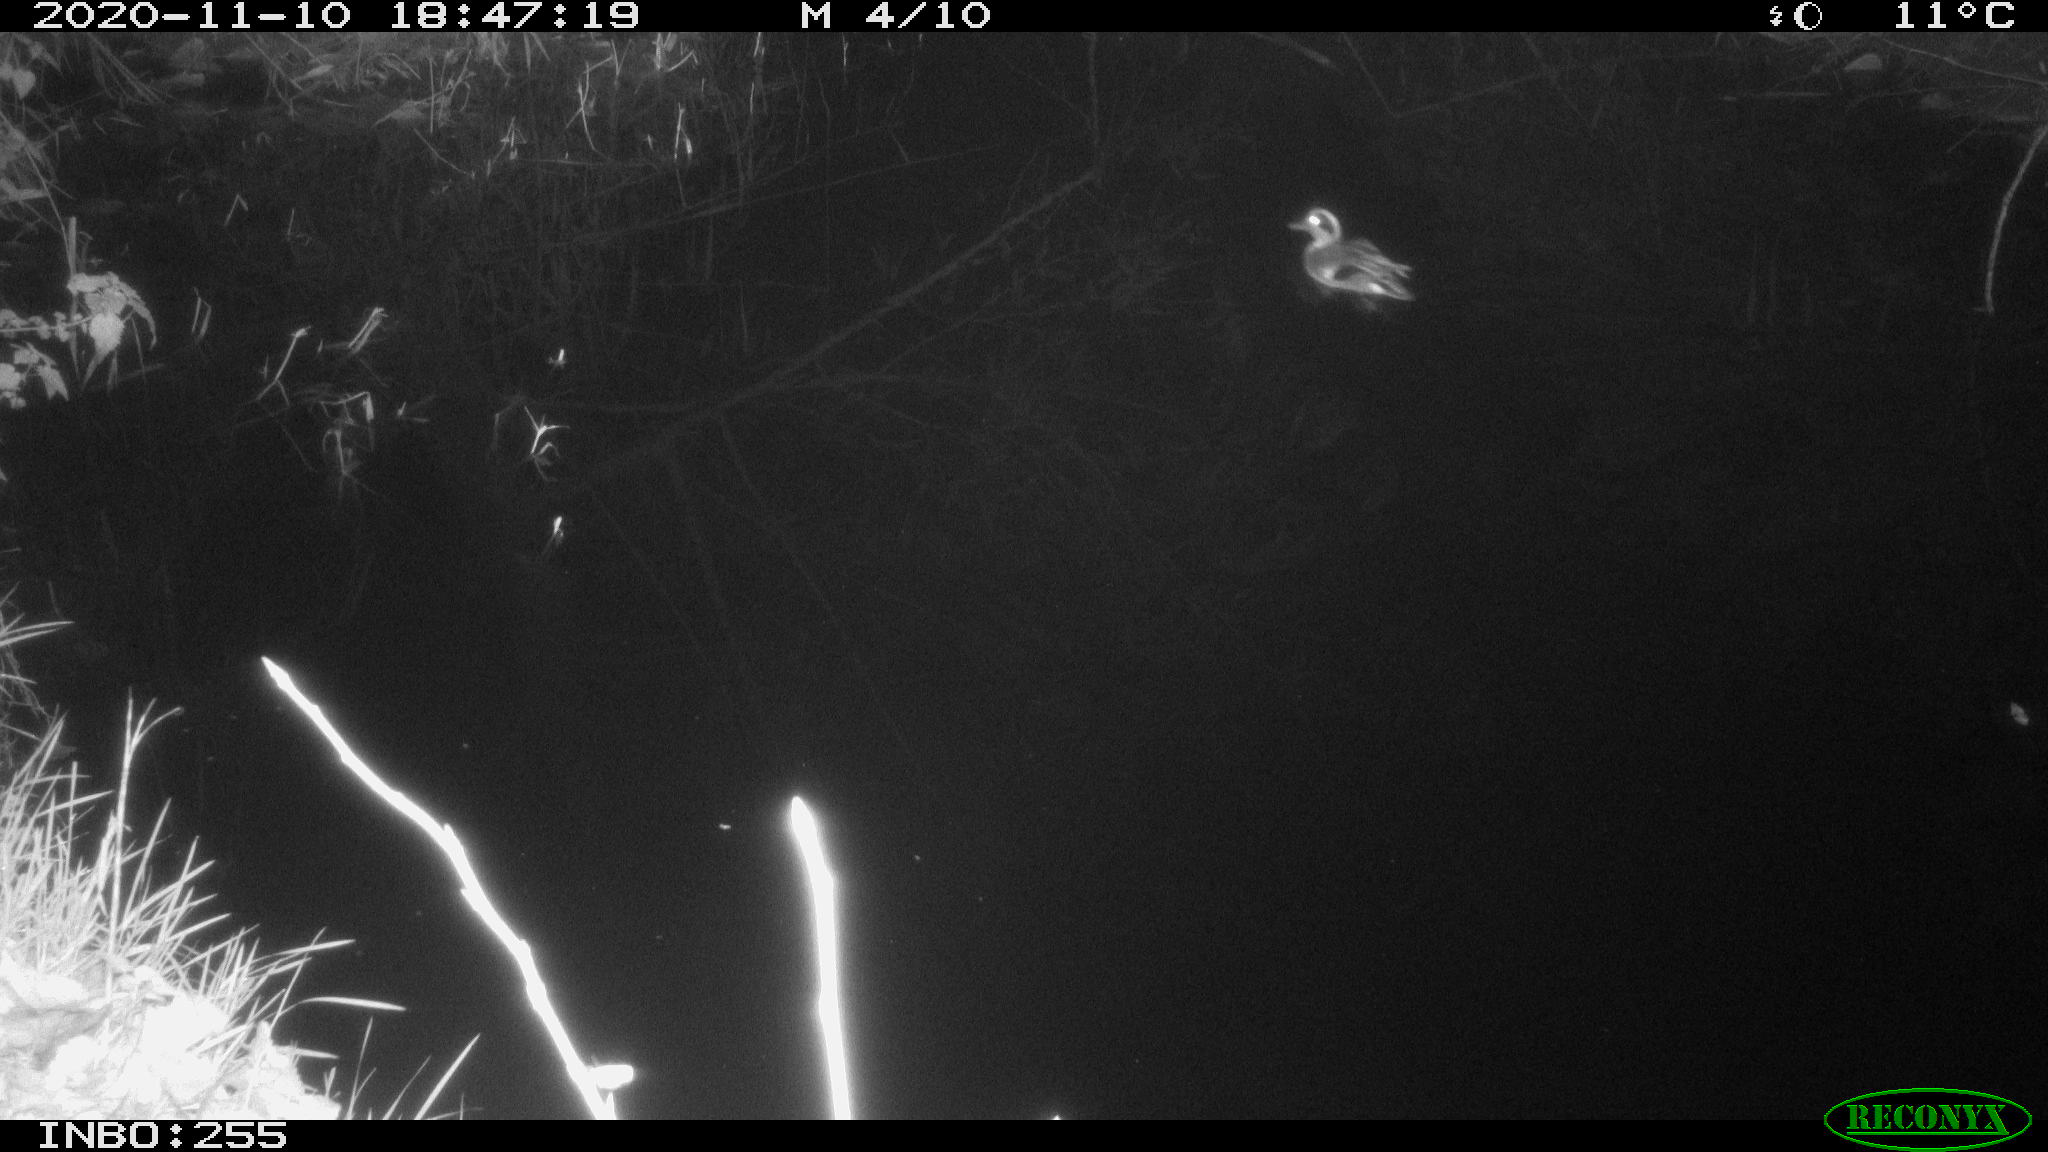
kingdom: Animalia
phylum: Chordata
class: Aves
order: Anseriformes
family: Anatidae
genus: Anas
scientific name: Anas crecca
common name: Eurasian teal
